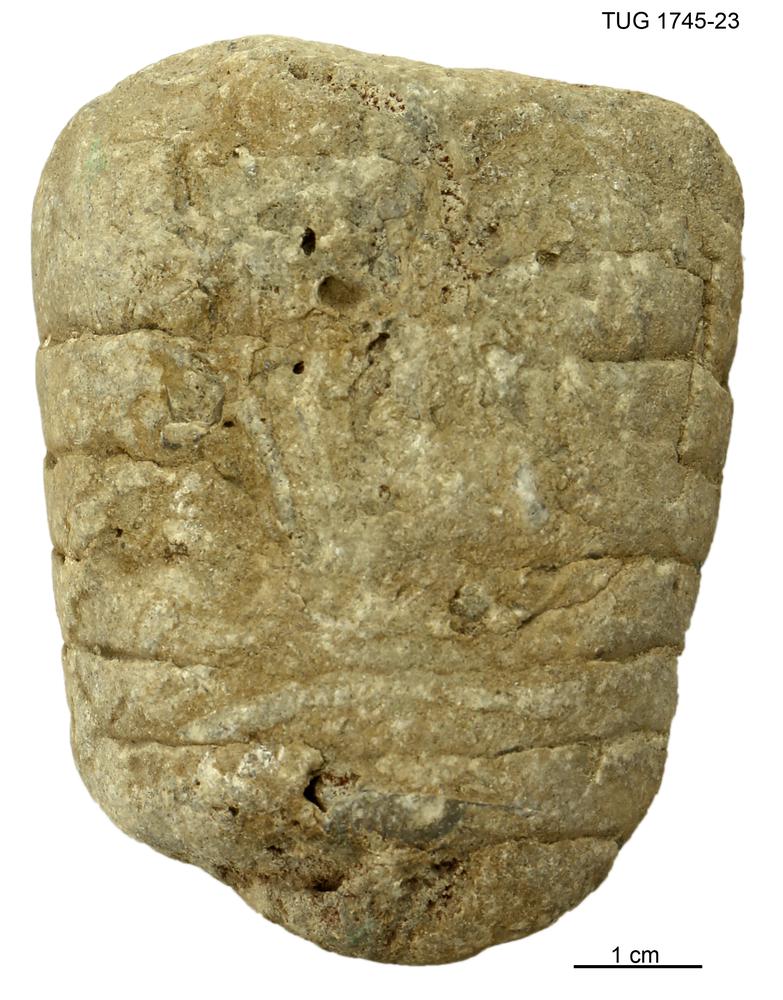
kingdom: Animalia
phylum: Mollusca
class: Cephalopoda
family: Endoceratidae
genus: Cameroceras
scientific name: Cameroceras Rossicoceras hasta
